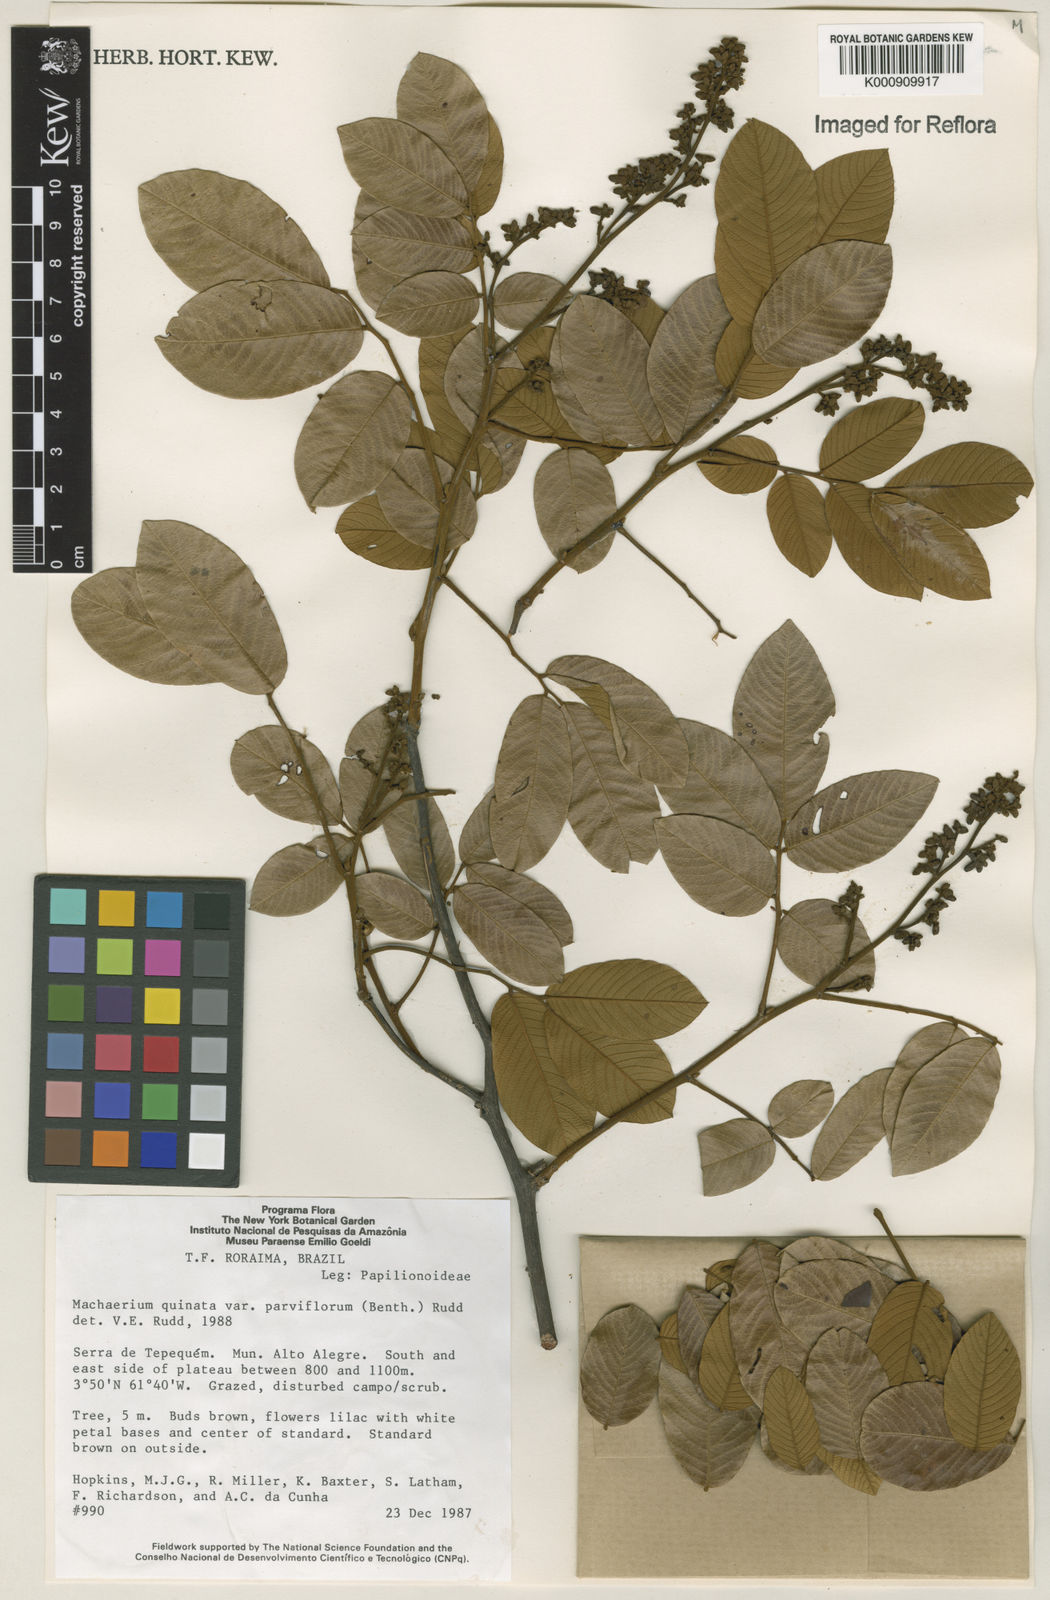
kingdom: Plantae
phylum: Tracheophyta
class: Magnoliopsida
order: Fabales
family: Fabaceae
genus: Machaerium
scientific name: Machaerium quinata
